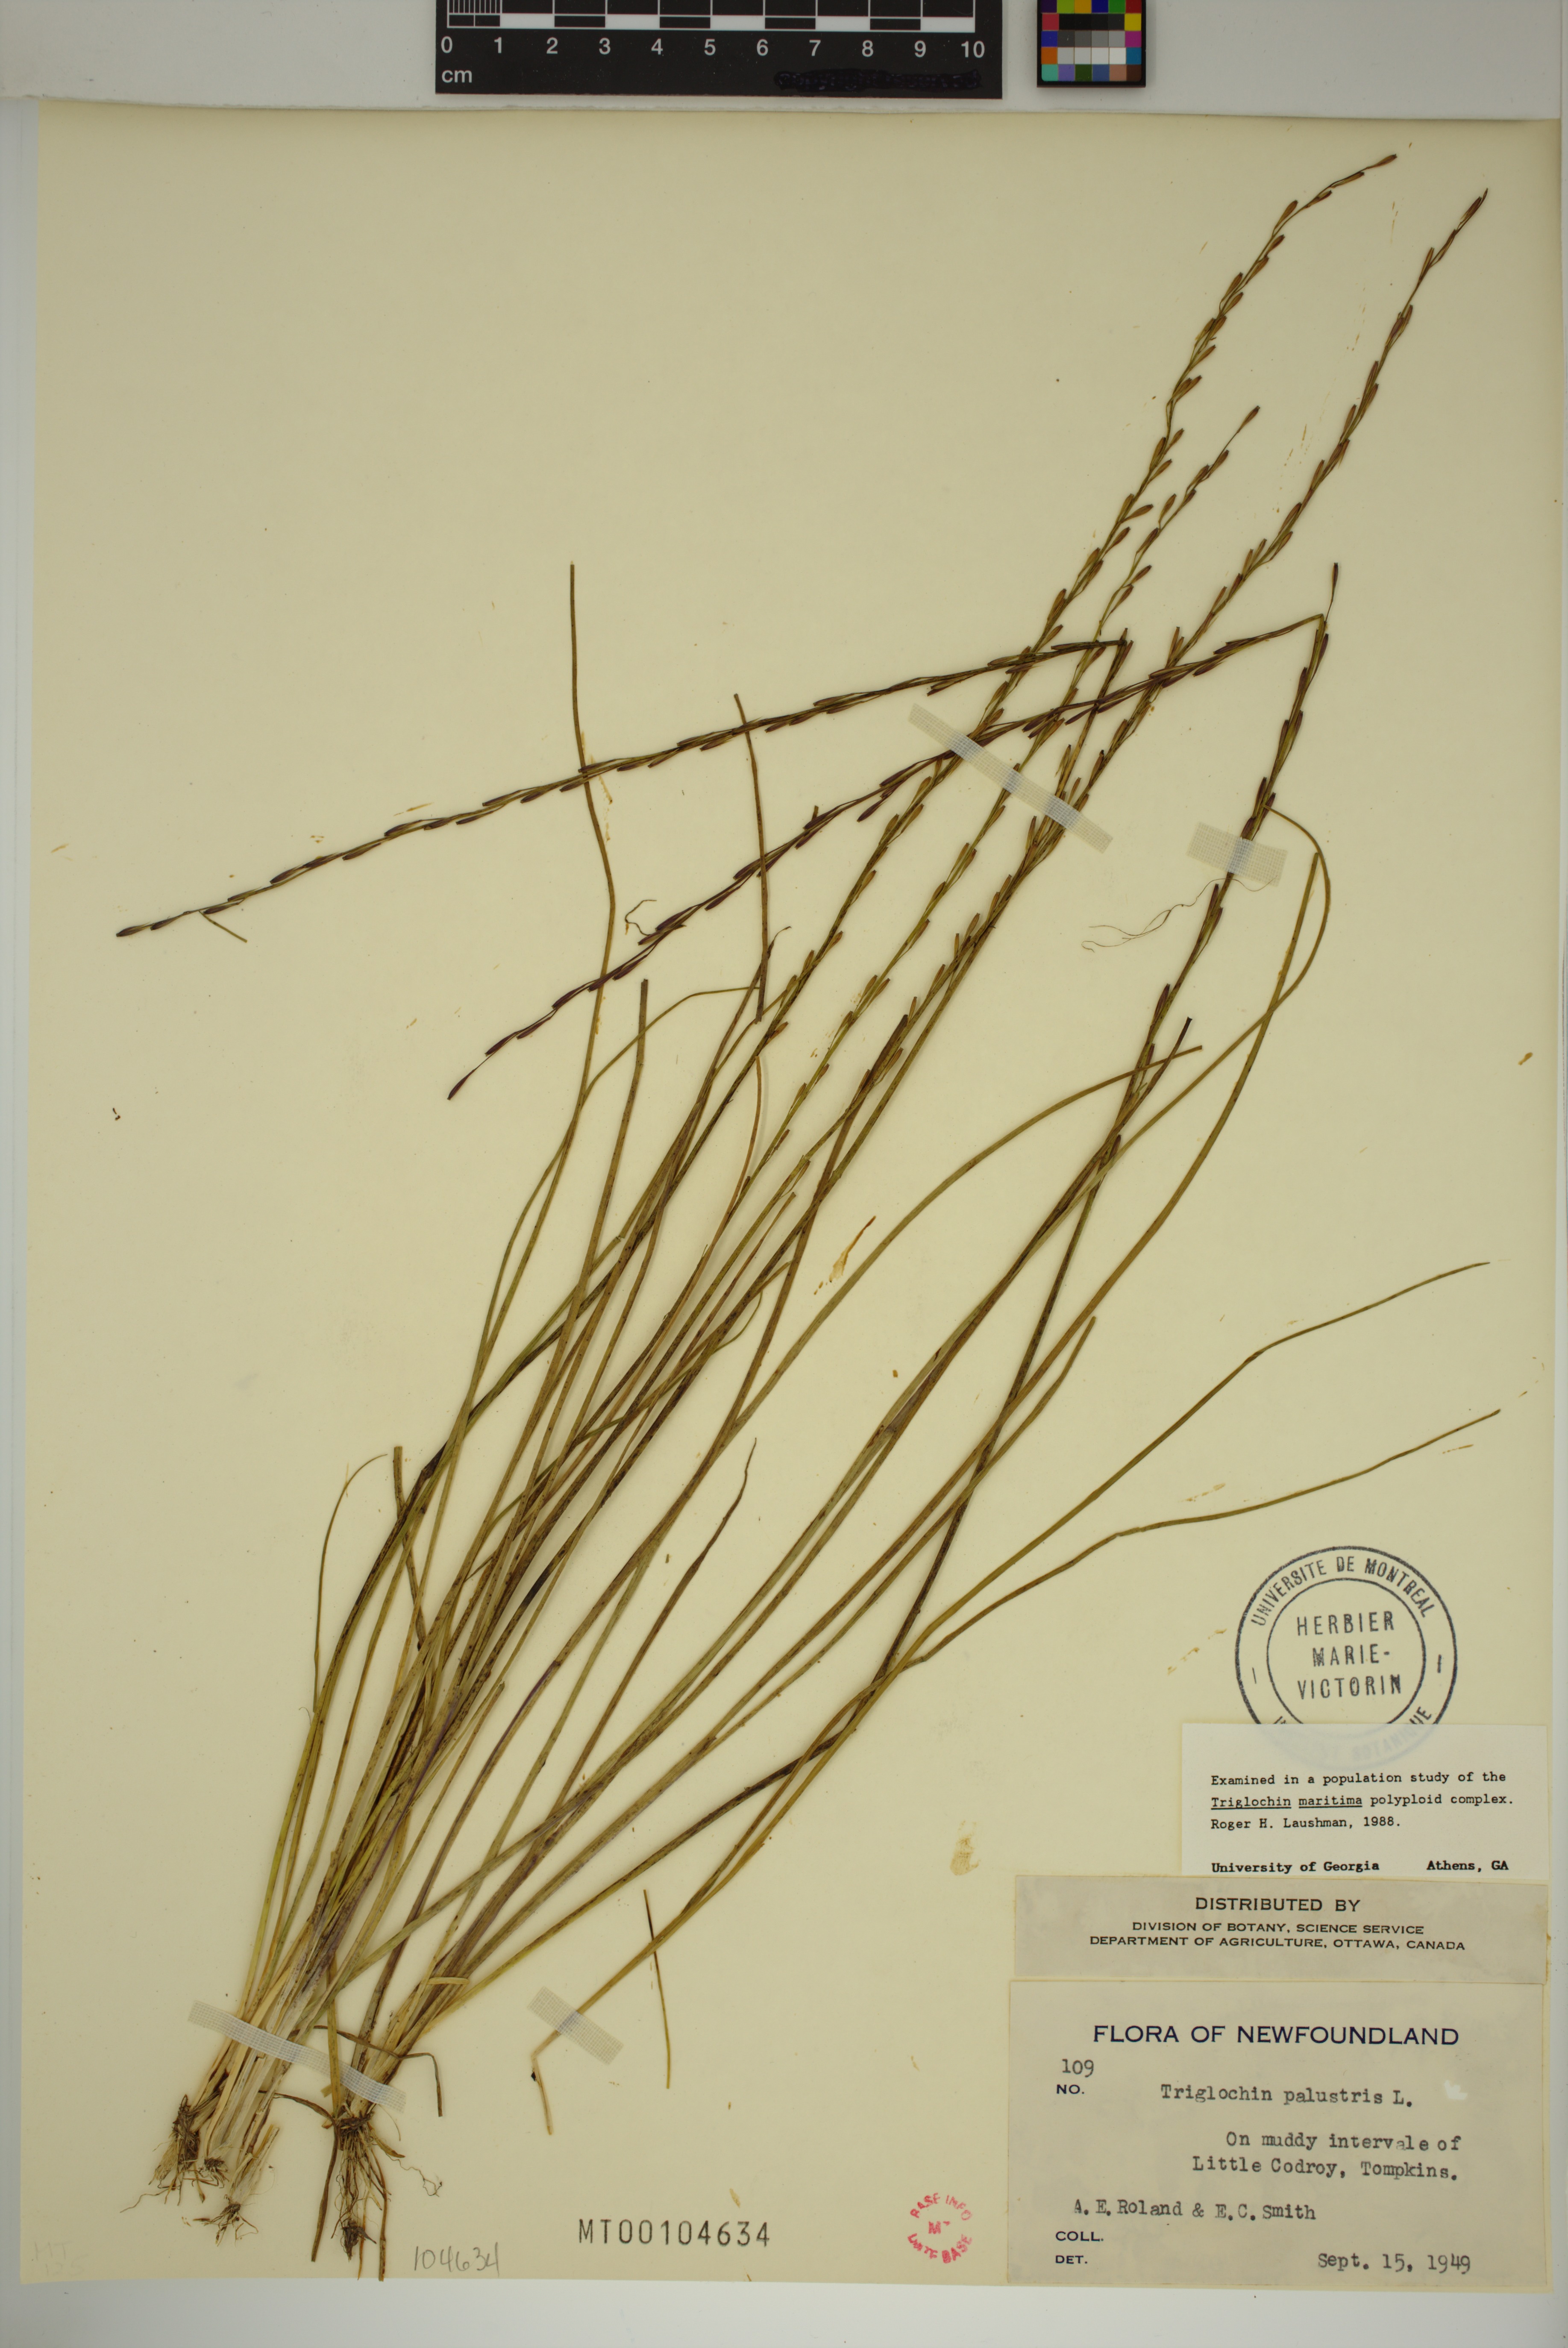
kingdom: Plantae
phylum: Tracheophyta
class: Liliopsida
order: Alismatales
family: Juncaginaceae
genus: Triglochin
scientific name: Triglochin palustris
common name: Marsh arrowgrass
